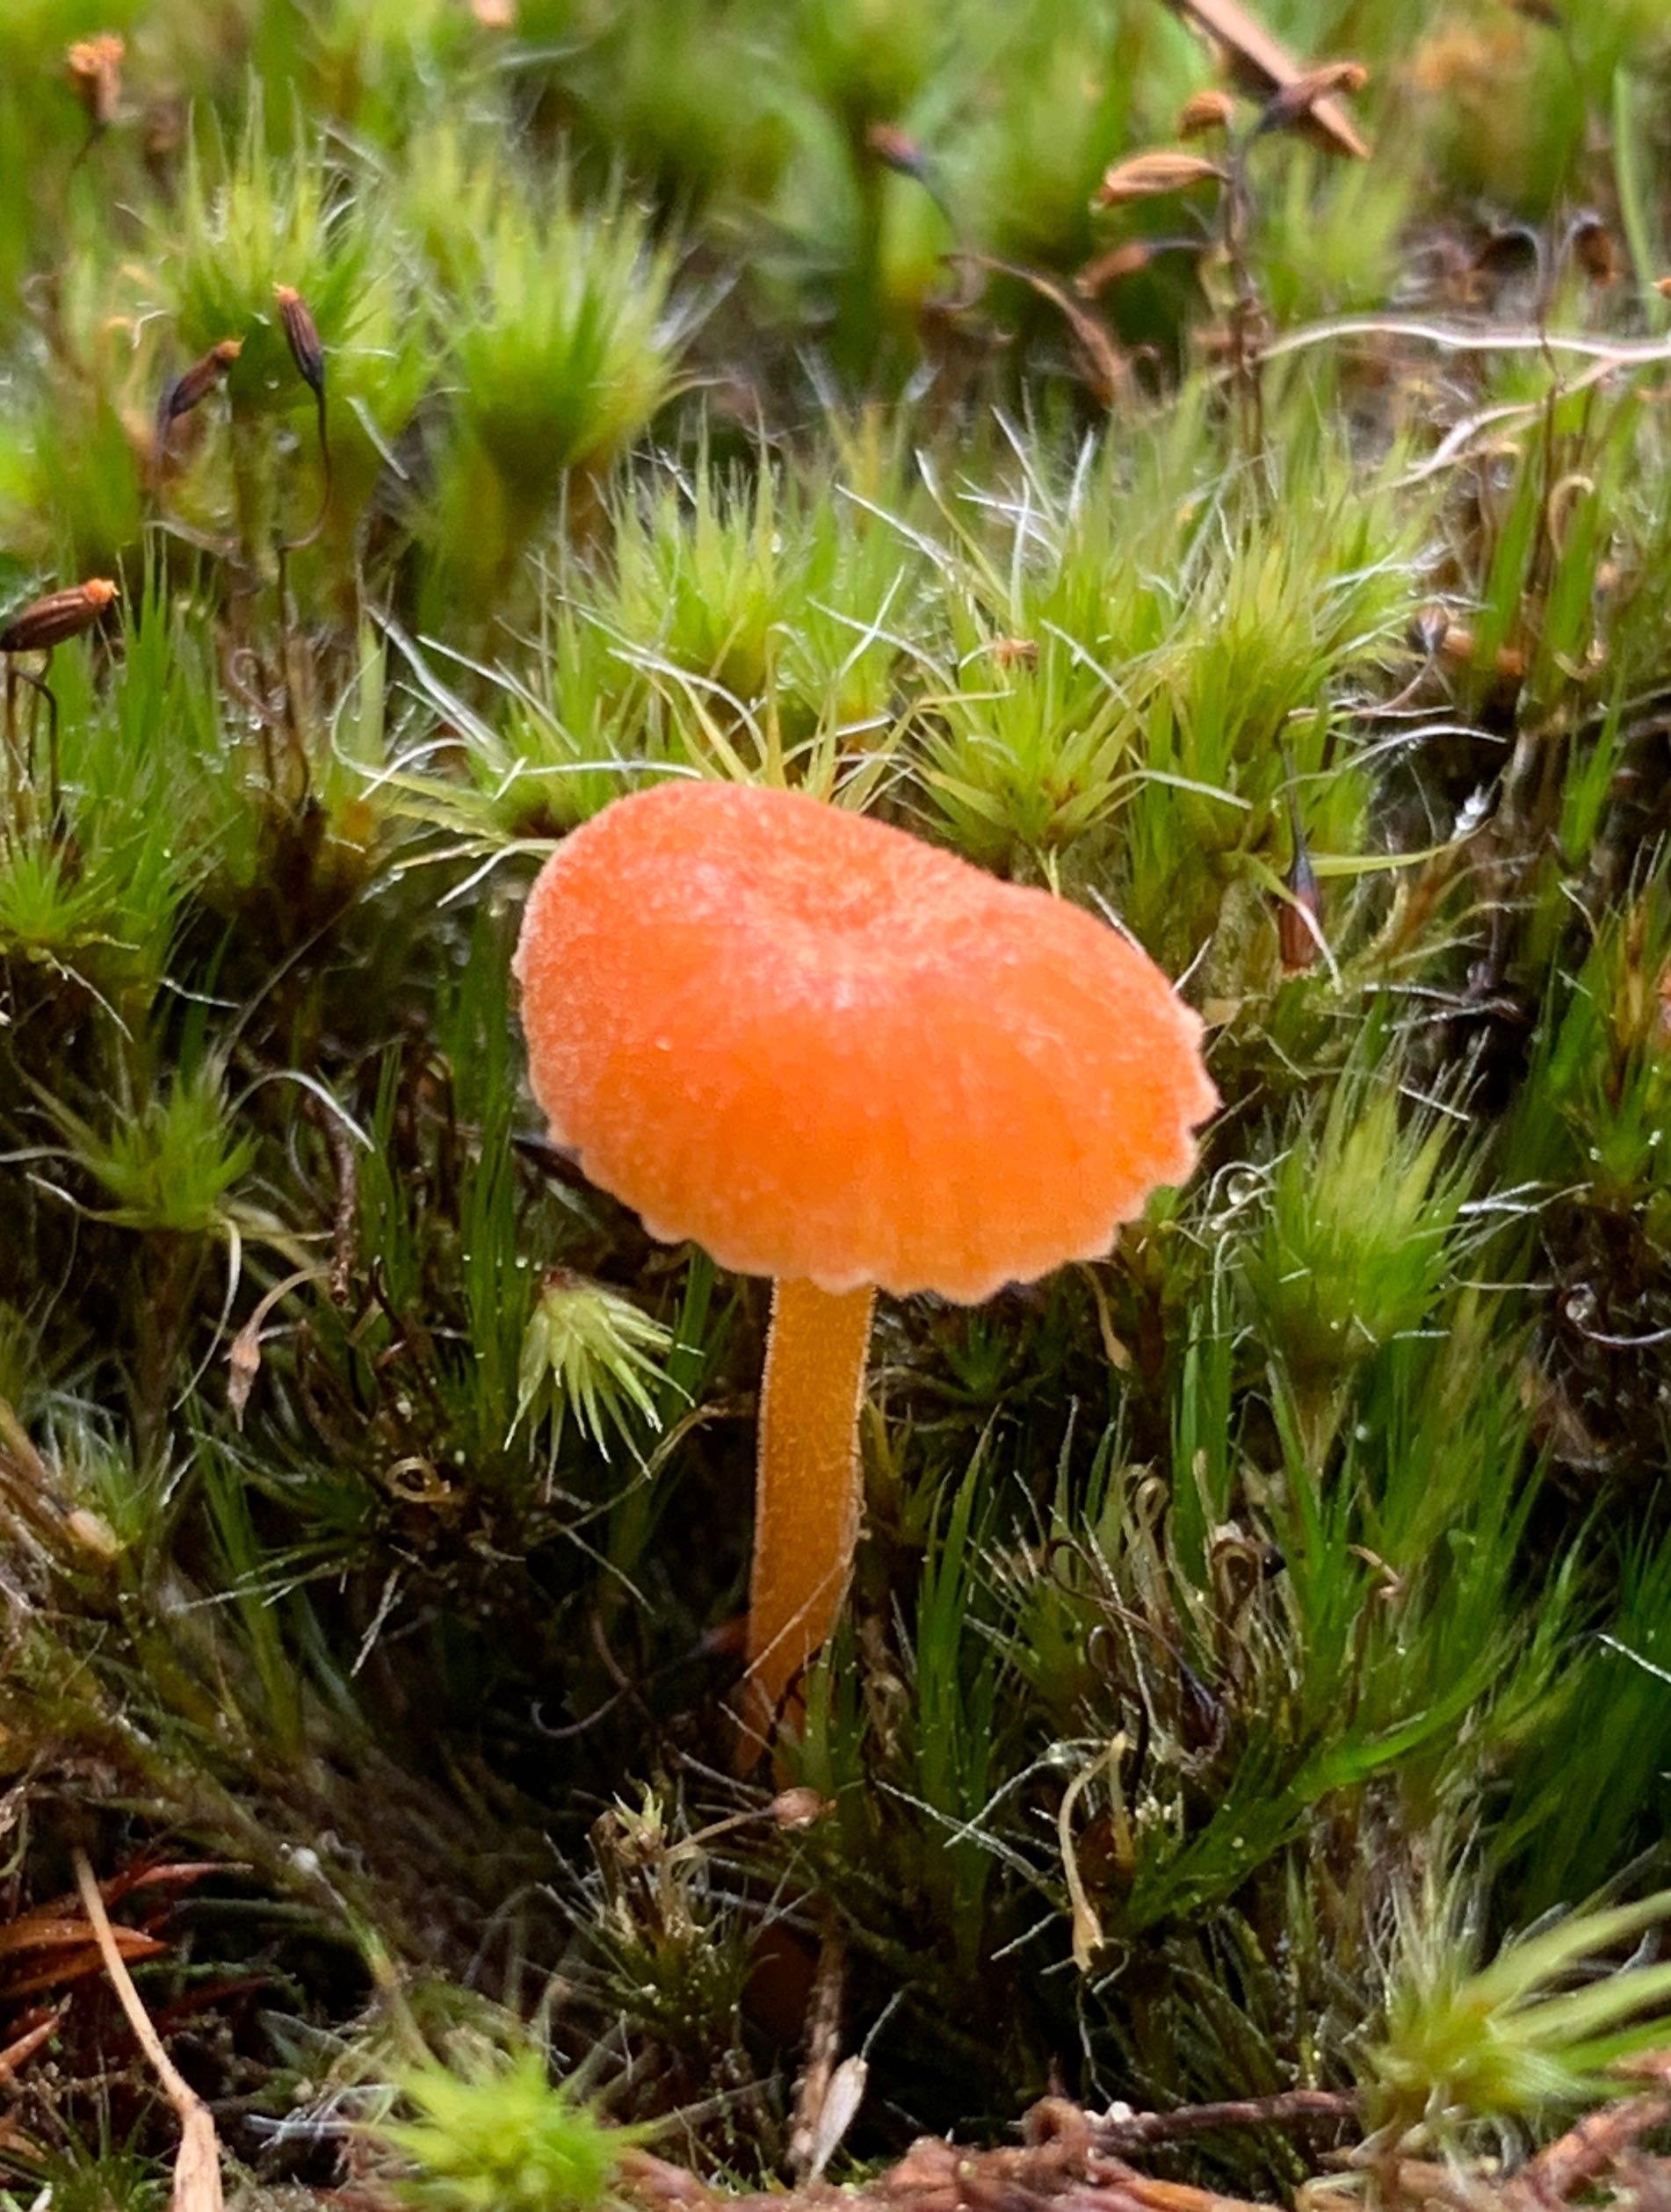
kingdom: Fungi
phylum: Basidiomycota
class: Agaricomycetes
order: Hymenochaetales
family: Rickenellaceae
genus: Rickenella
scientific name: Rickenella fibula
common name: orange mosnavlehat
